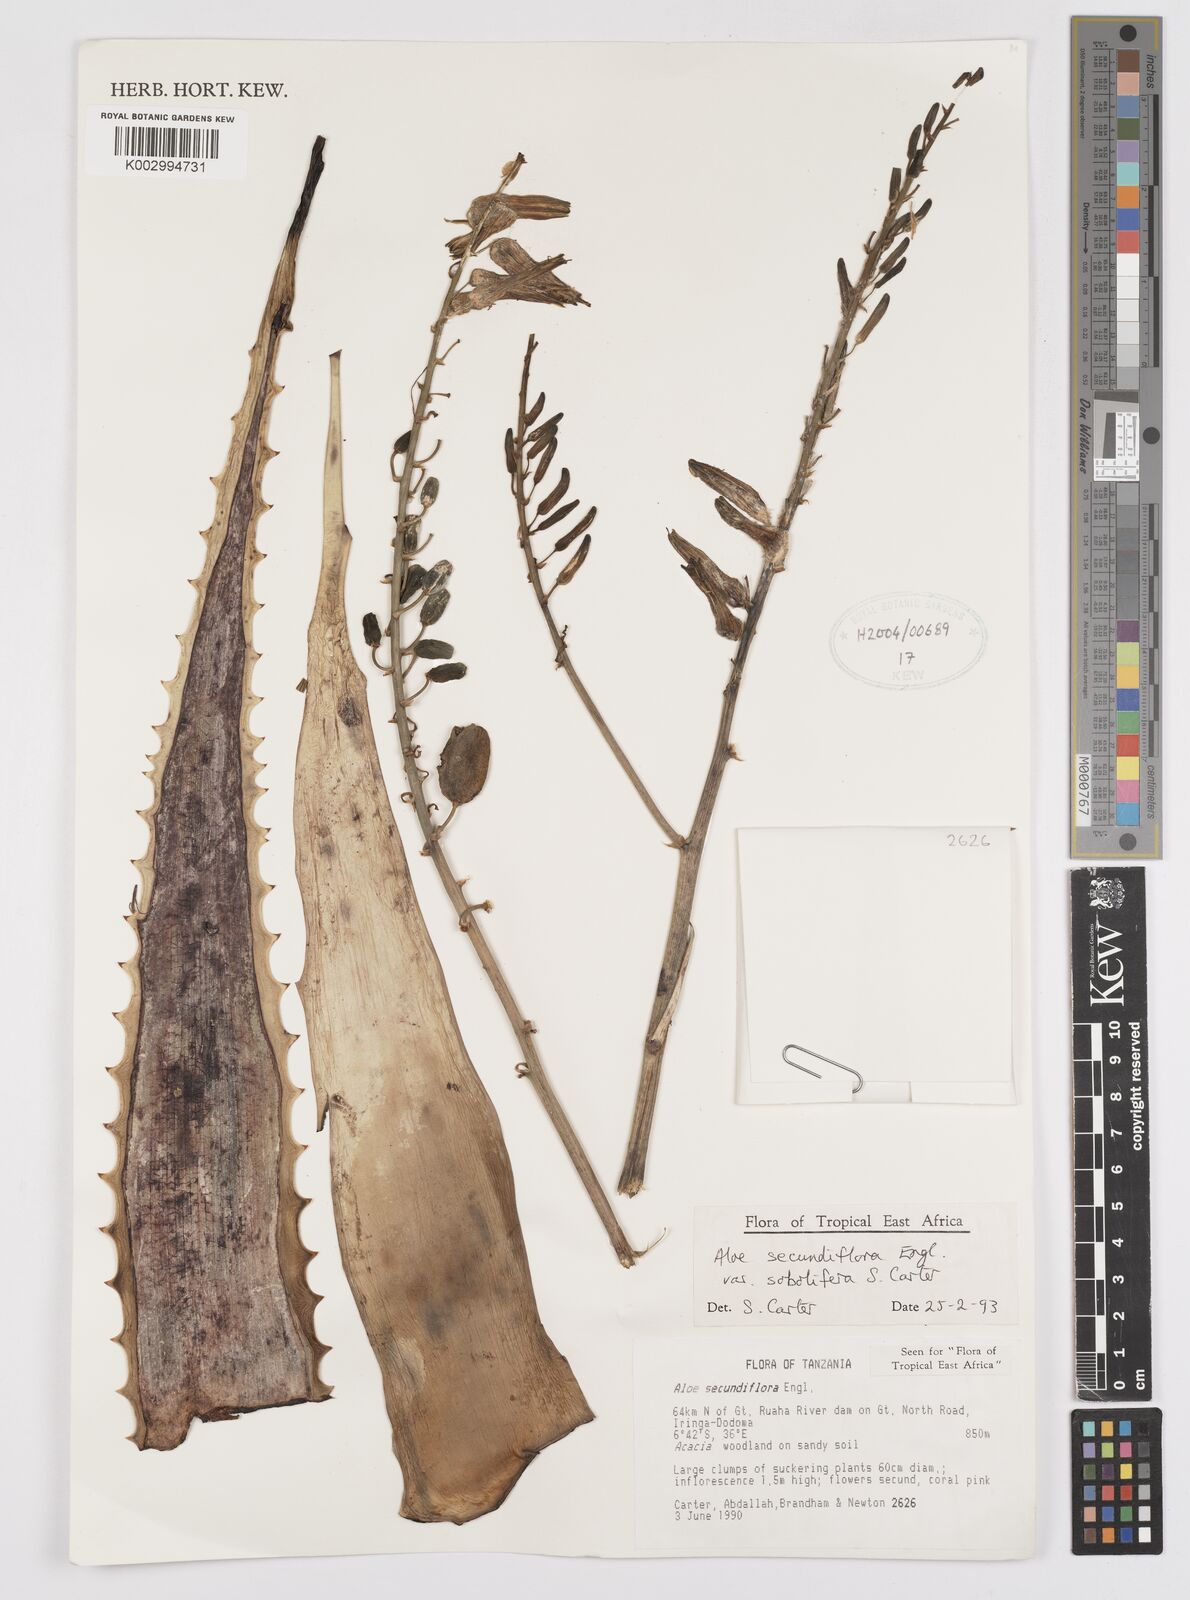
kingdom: Plantae
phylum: Tracheophyta
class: Liliopsida
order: Asparagales
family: Asphodelaceae
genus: Aloe
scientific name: Aloe sobolifera
